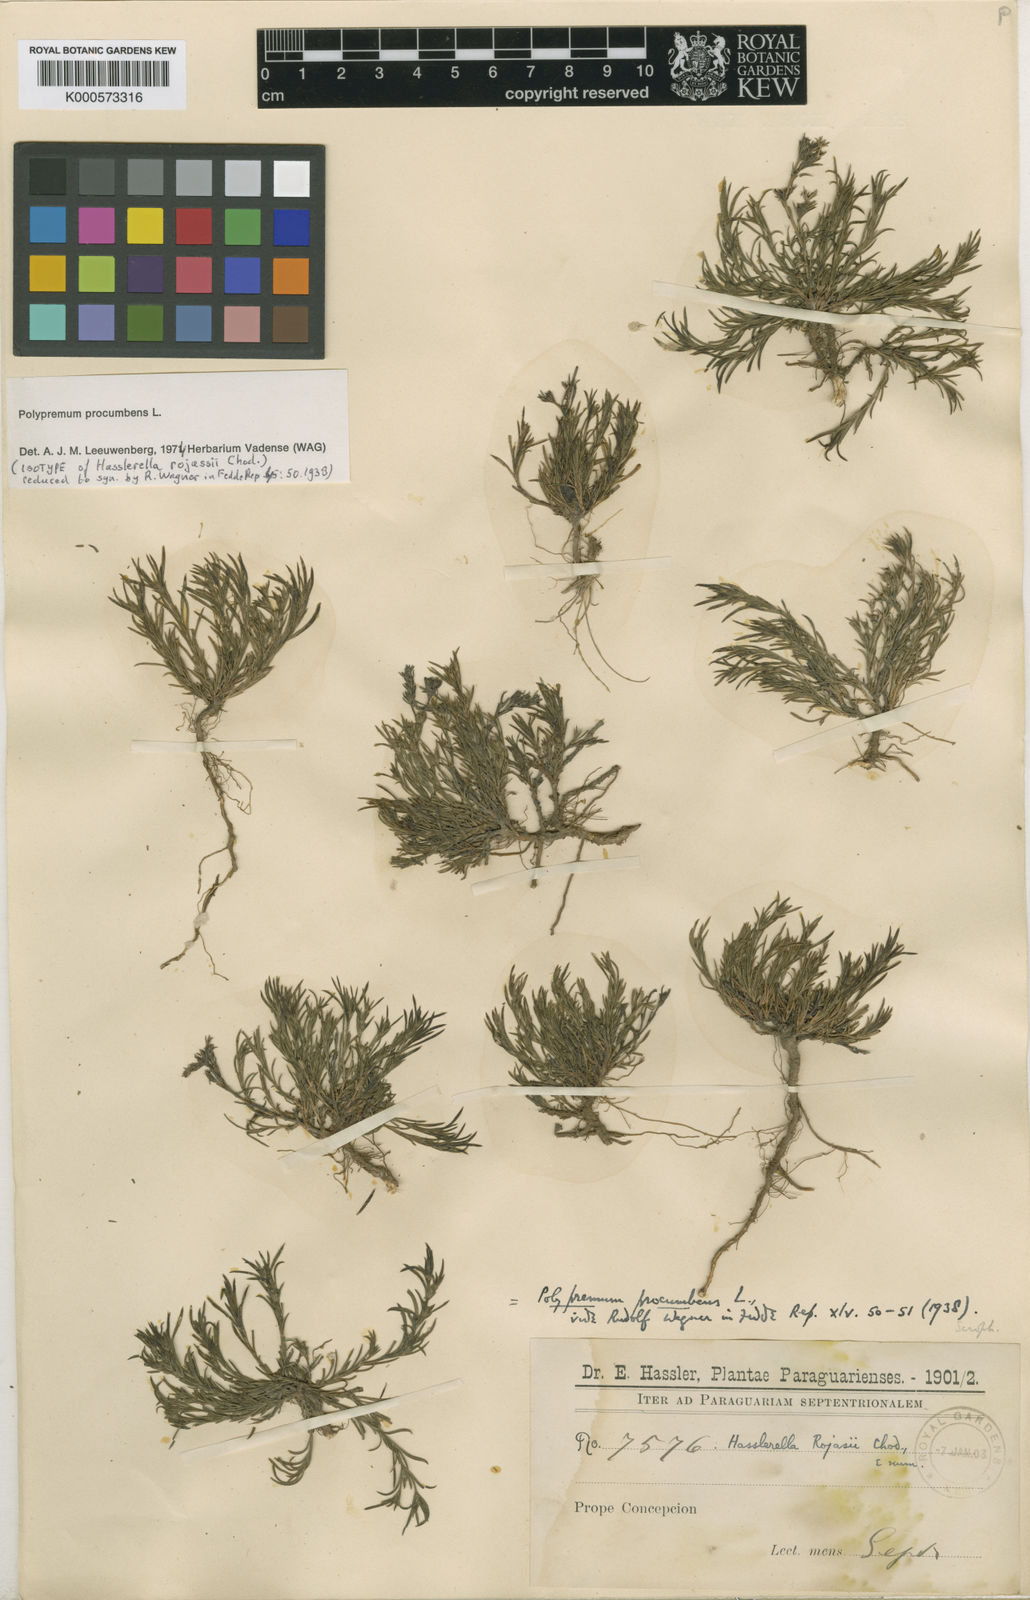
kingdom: Plantae
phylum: Tracheophyta
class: Magnoliopsida
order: Lamiales
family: Tetrachondraceae
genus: Polypremum
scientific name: Polypremum procumbens
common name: Juniper-leaf
